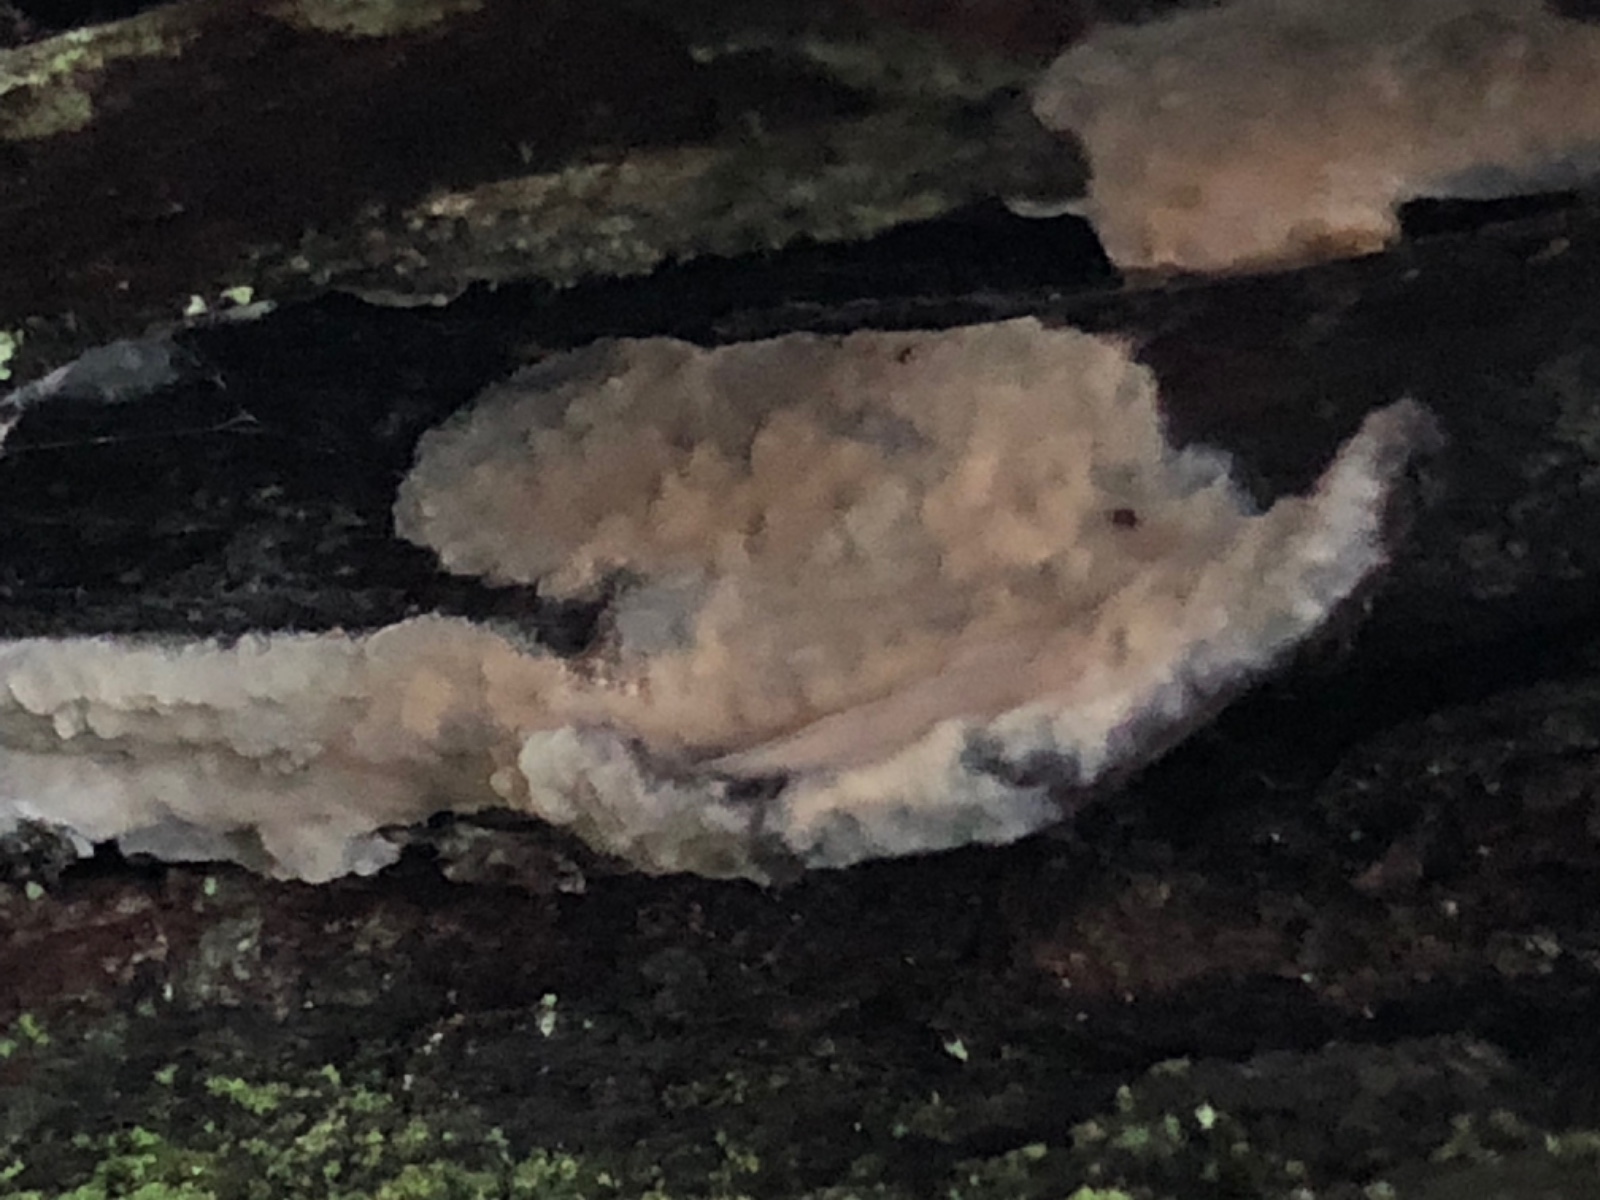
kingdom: Fungi
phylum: Basidiomycota
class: Agaricomycetes
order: Agaricales
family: Radulomycetaceae
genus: Radulomyces
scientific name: Radulomyces confluens
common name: glat naftalinskind
